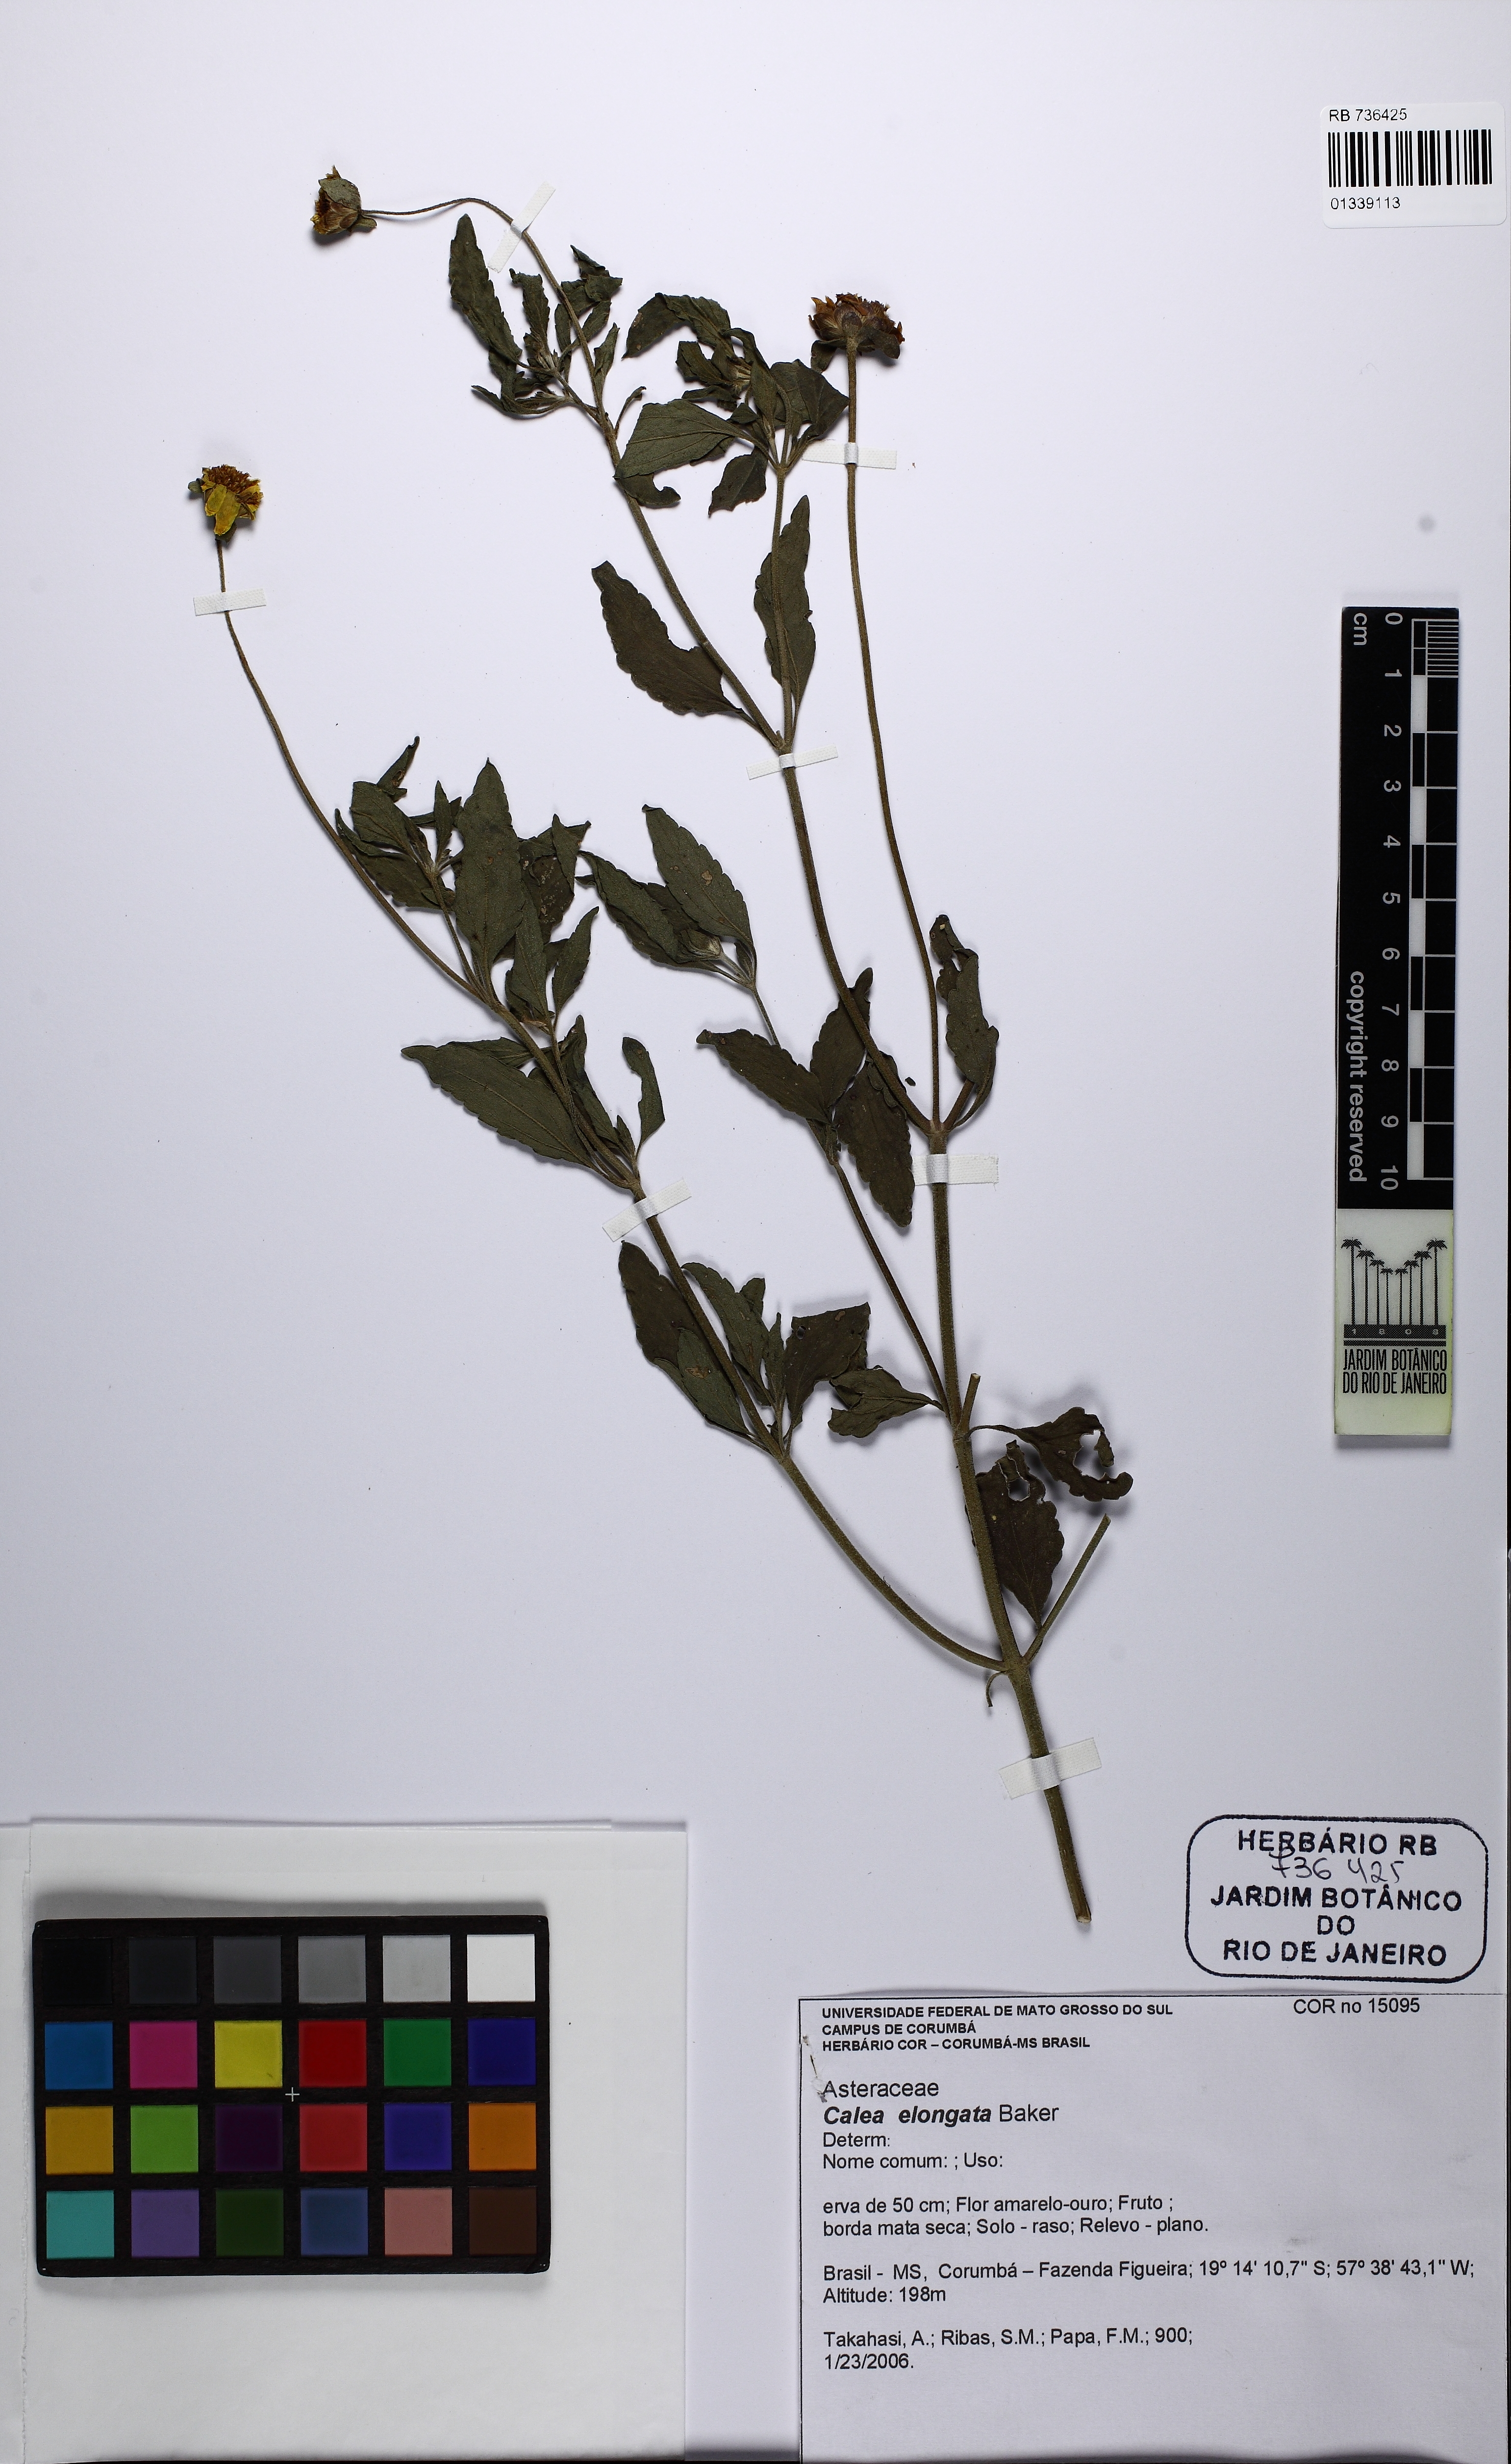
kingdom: Plantae
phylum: Tracheophyta
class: Magnoliopsida
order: Asterales
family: Asteraceae
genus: Calea
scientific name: Calea elongata
